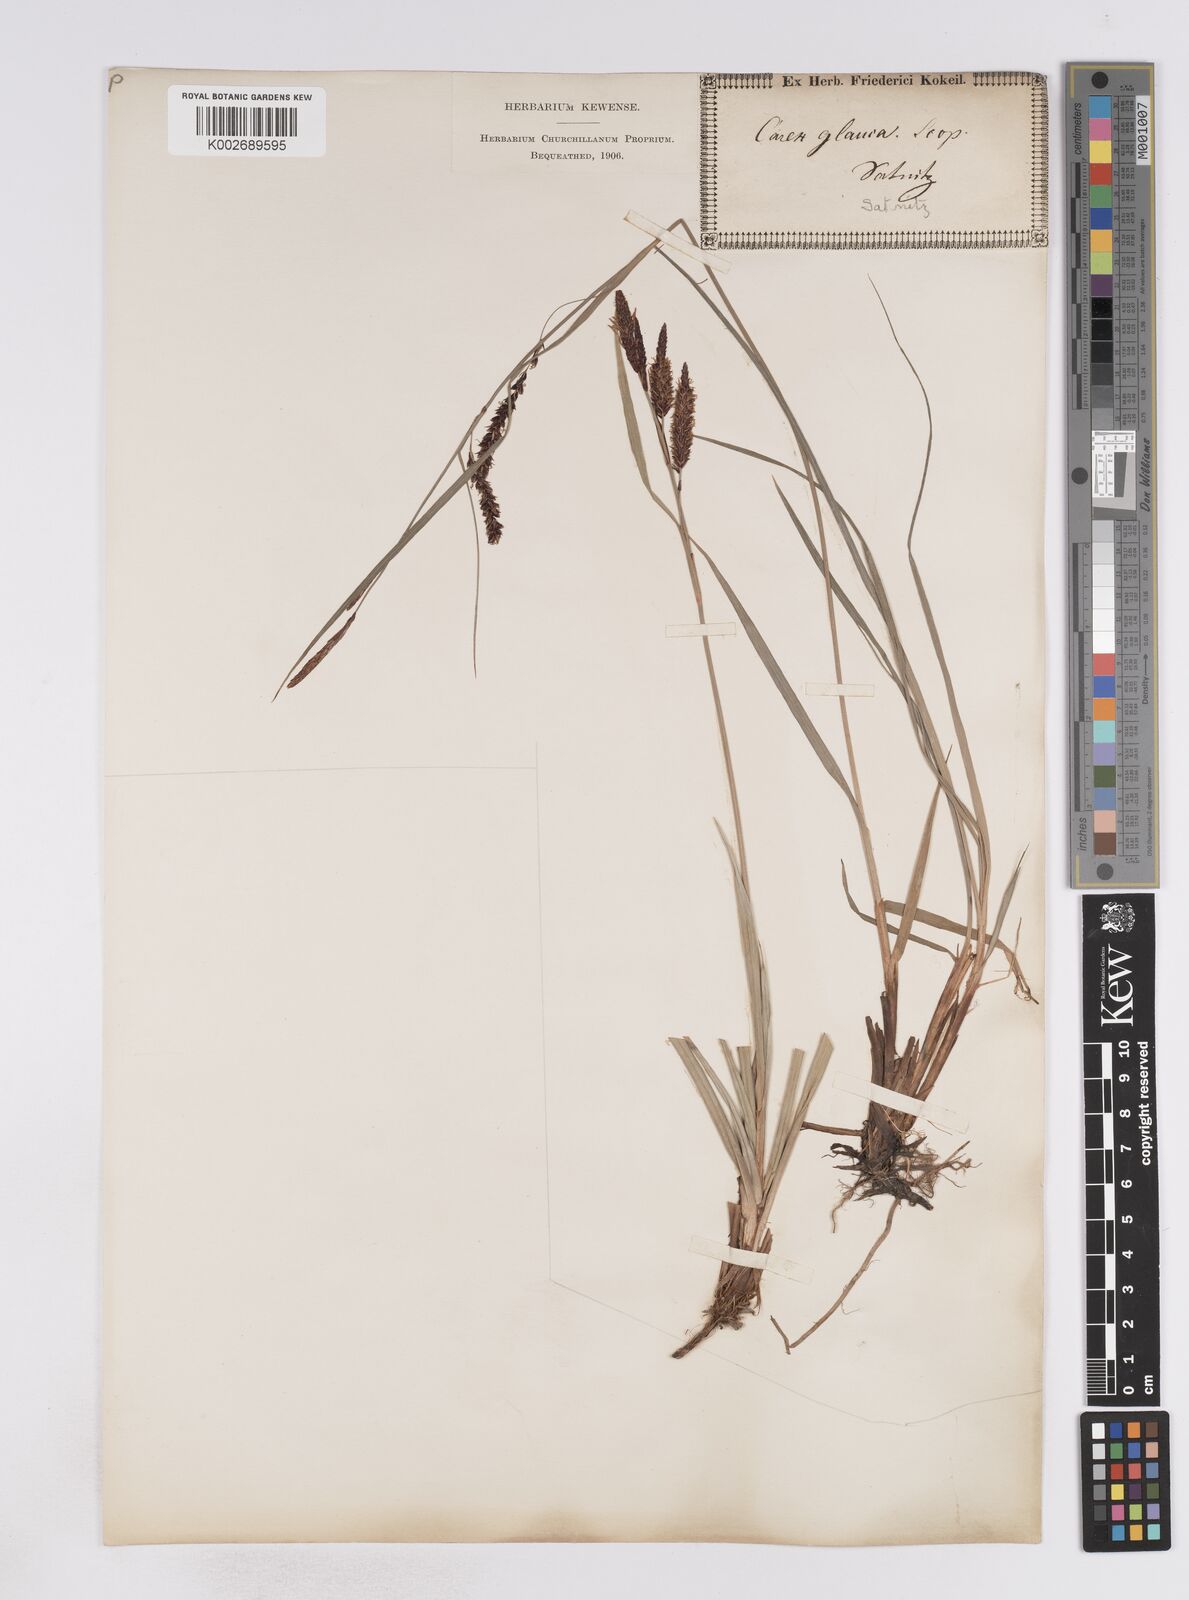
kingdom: Plantae
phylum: Tracheophyta
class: Liliopsida
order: Poales
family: Cyperaceae
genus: Carex
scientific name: Carex flacca
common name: Glaucous sedge
